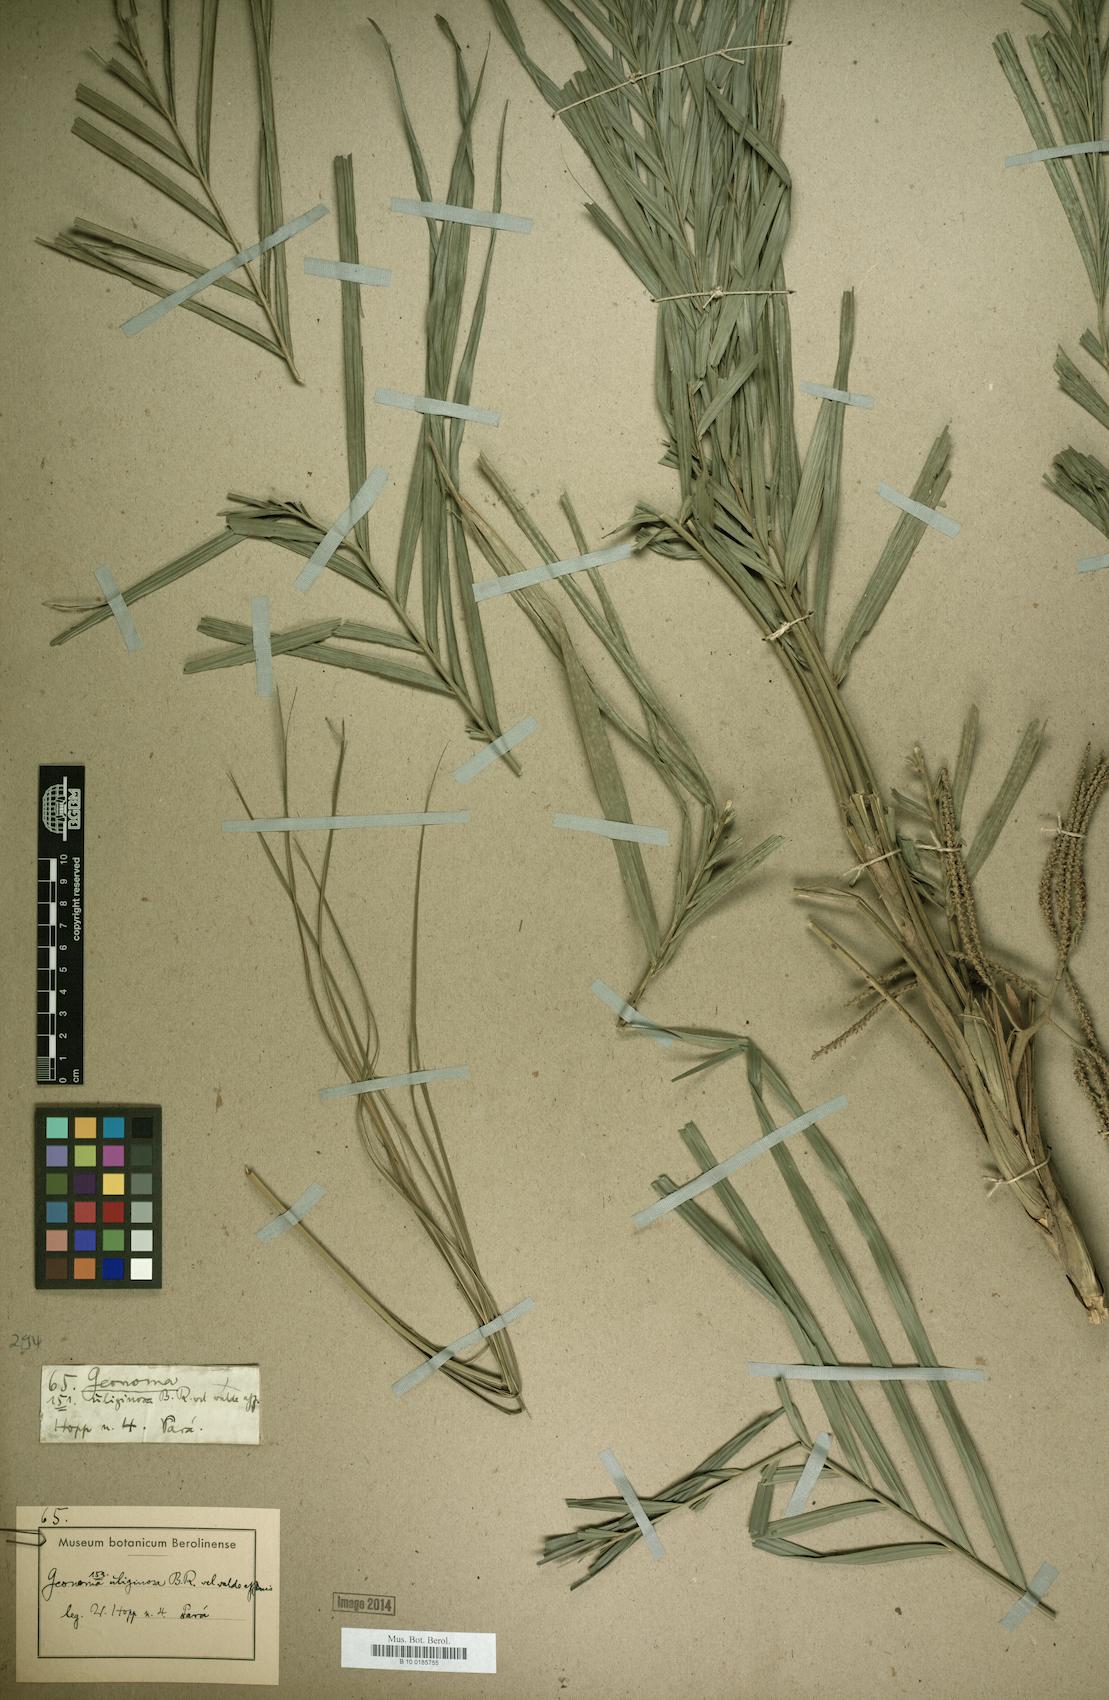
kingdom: Plantae
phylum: Tracheophyta
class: Liliopsida
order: Arecales
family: Arecaceae
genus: Geonoma
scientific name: Geonoma maxima
